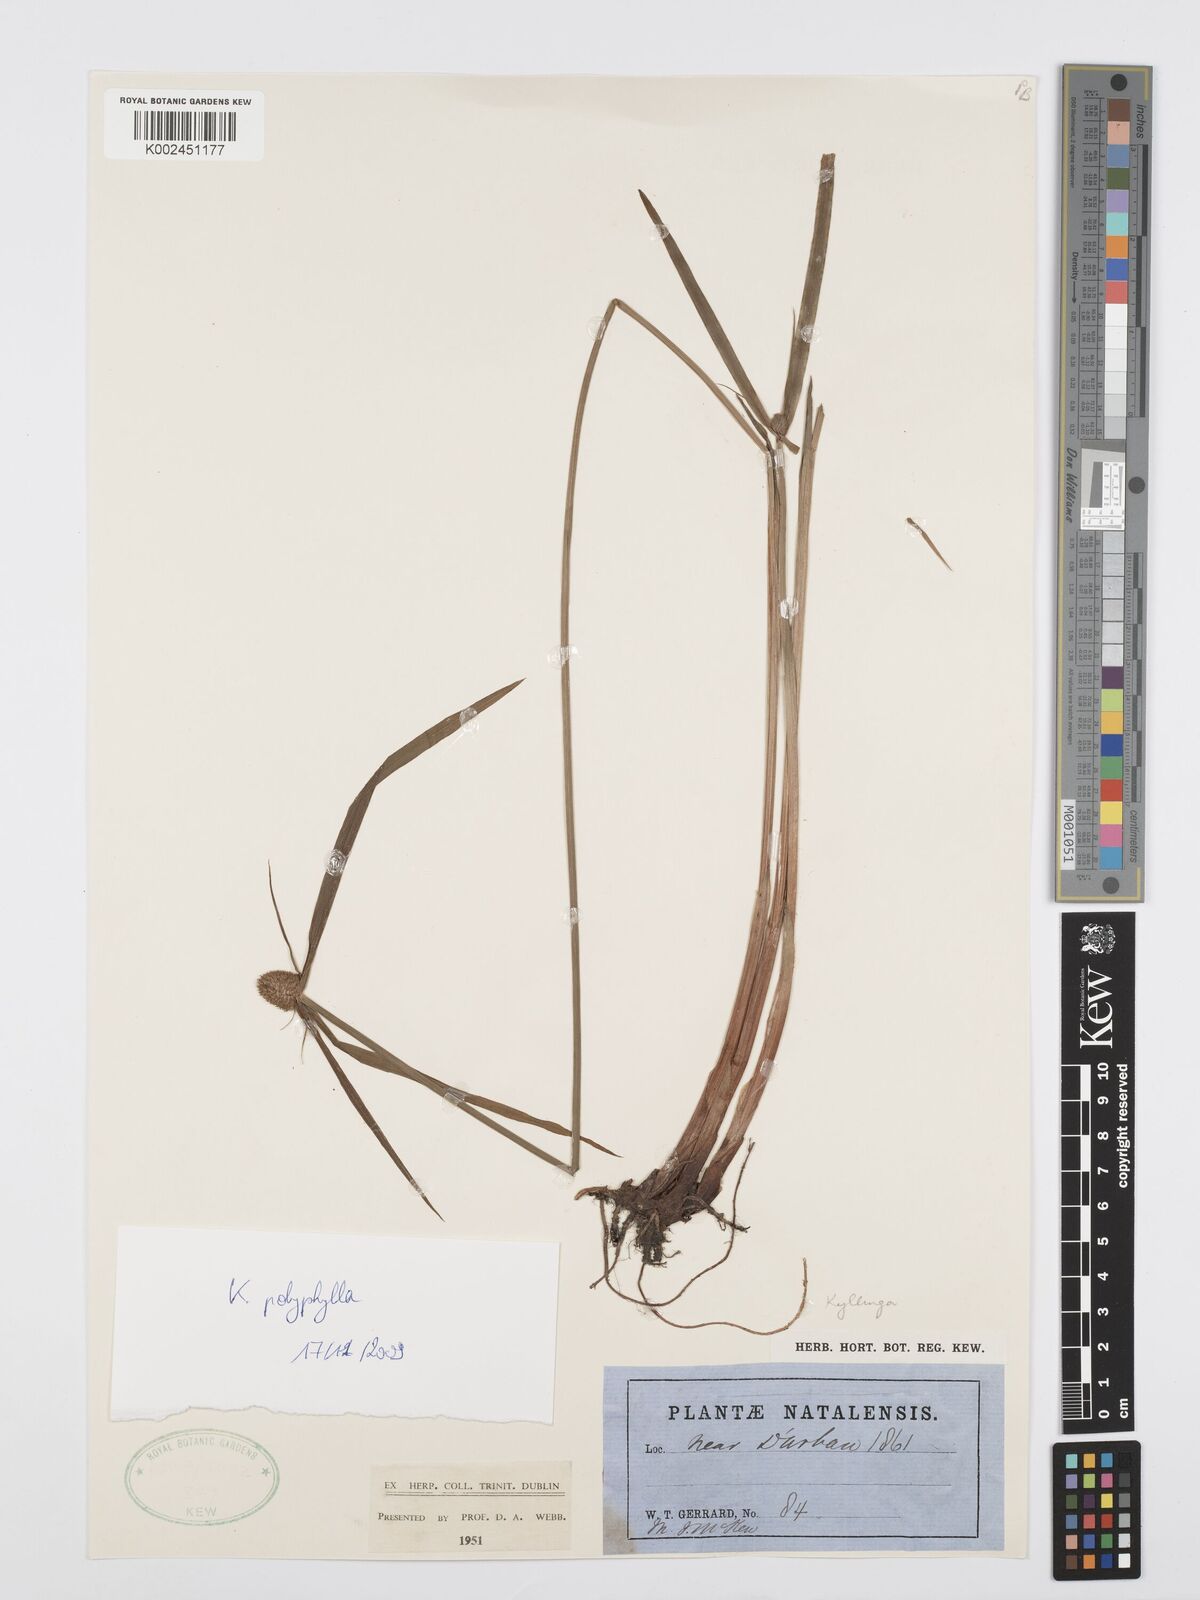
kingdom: Plantae
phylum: Tracheophyta
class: Liliopsida
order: Poales
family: Cyperaceae
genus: Cyperus
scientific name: Cyperus aromaticus
